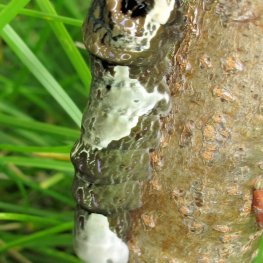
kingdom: Animalia
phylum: Arthropoda
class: Insecta
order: Lepidoptera
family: Papilionidae
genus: Papilio
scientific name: Papilio cresphontes
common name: Eastern Giant Swallowtail
